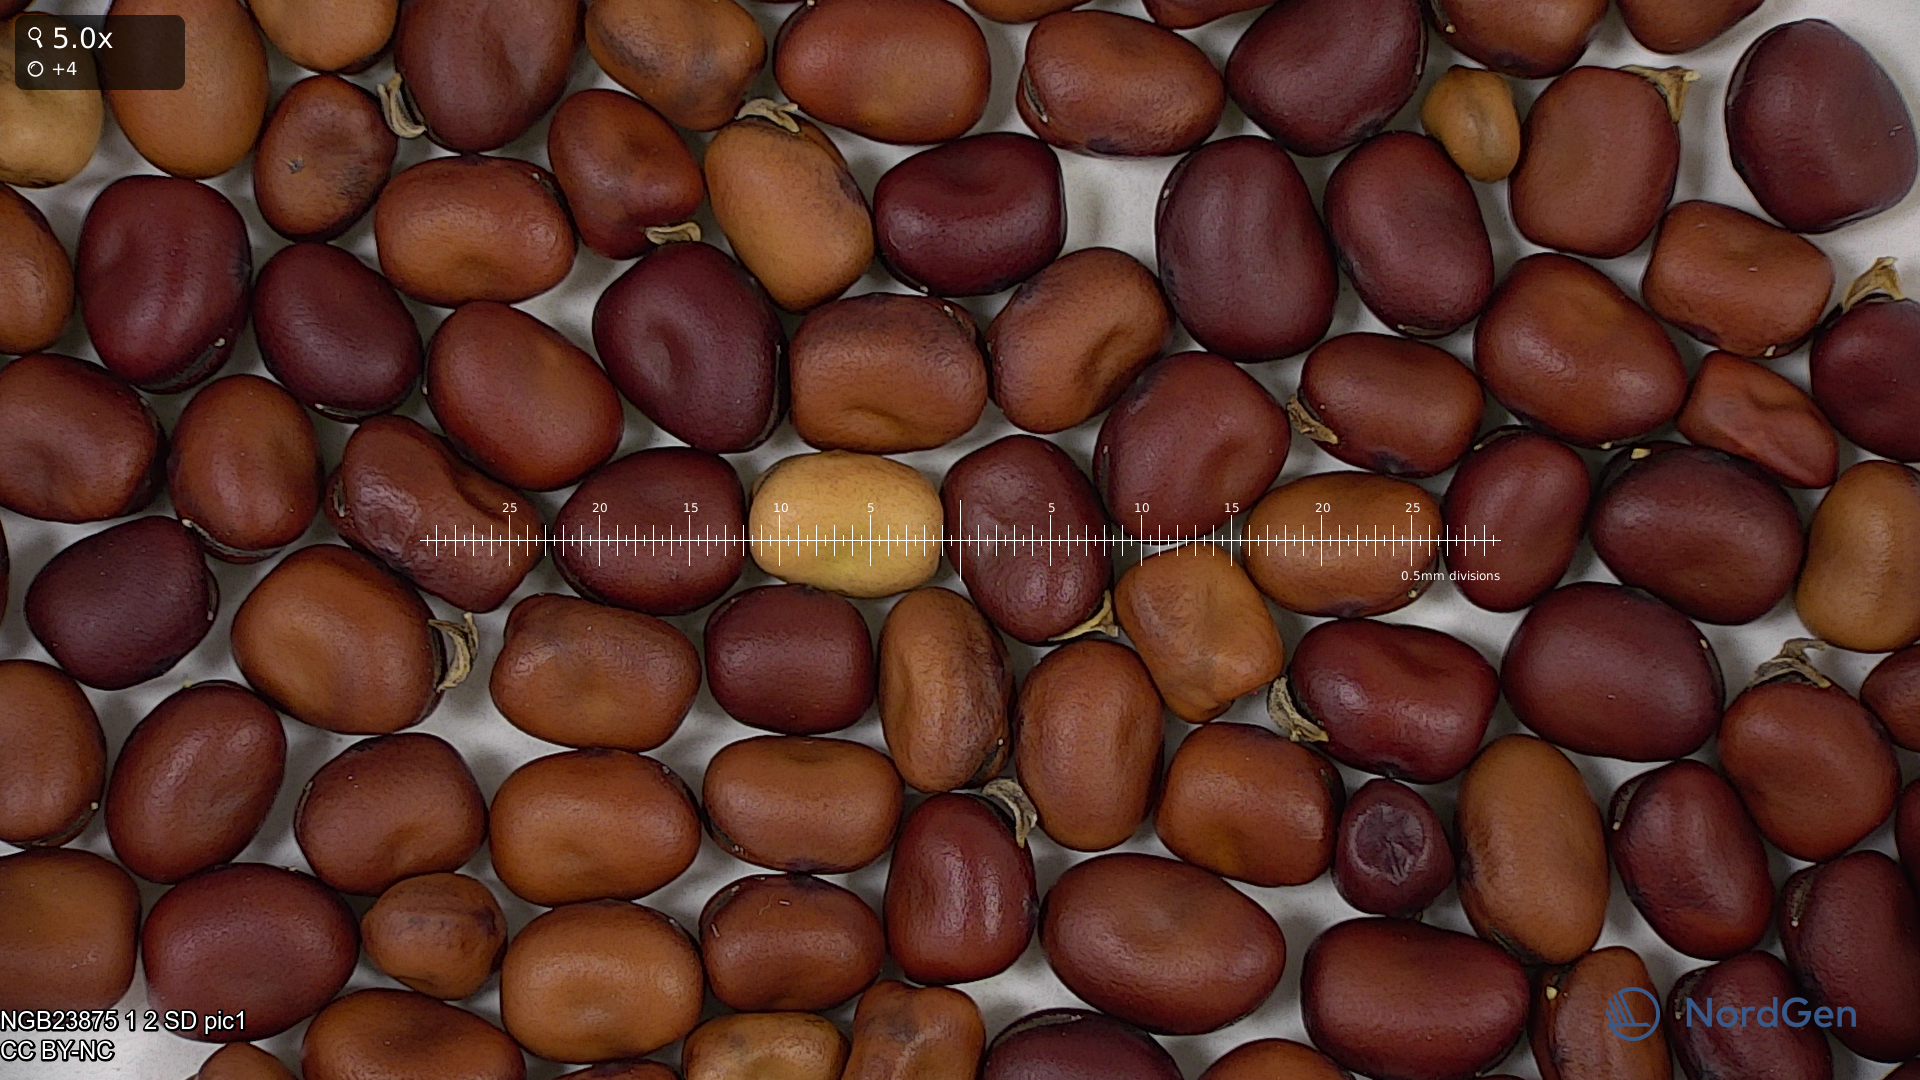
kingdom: Plantae
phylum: Tracheophyta
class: Magnoliopsida
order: Fabales
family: Fabaceae
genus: Vicia
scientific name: Vicia faba
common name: Broad bean
